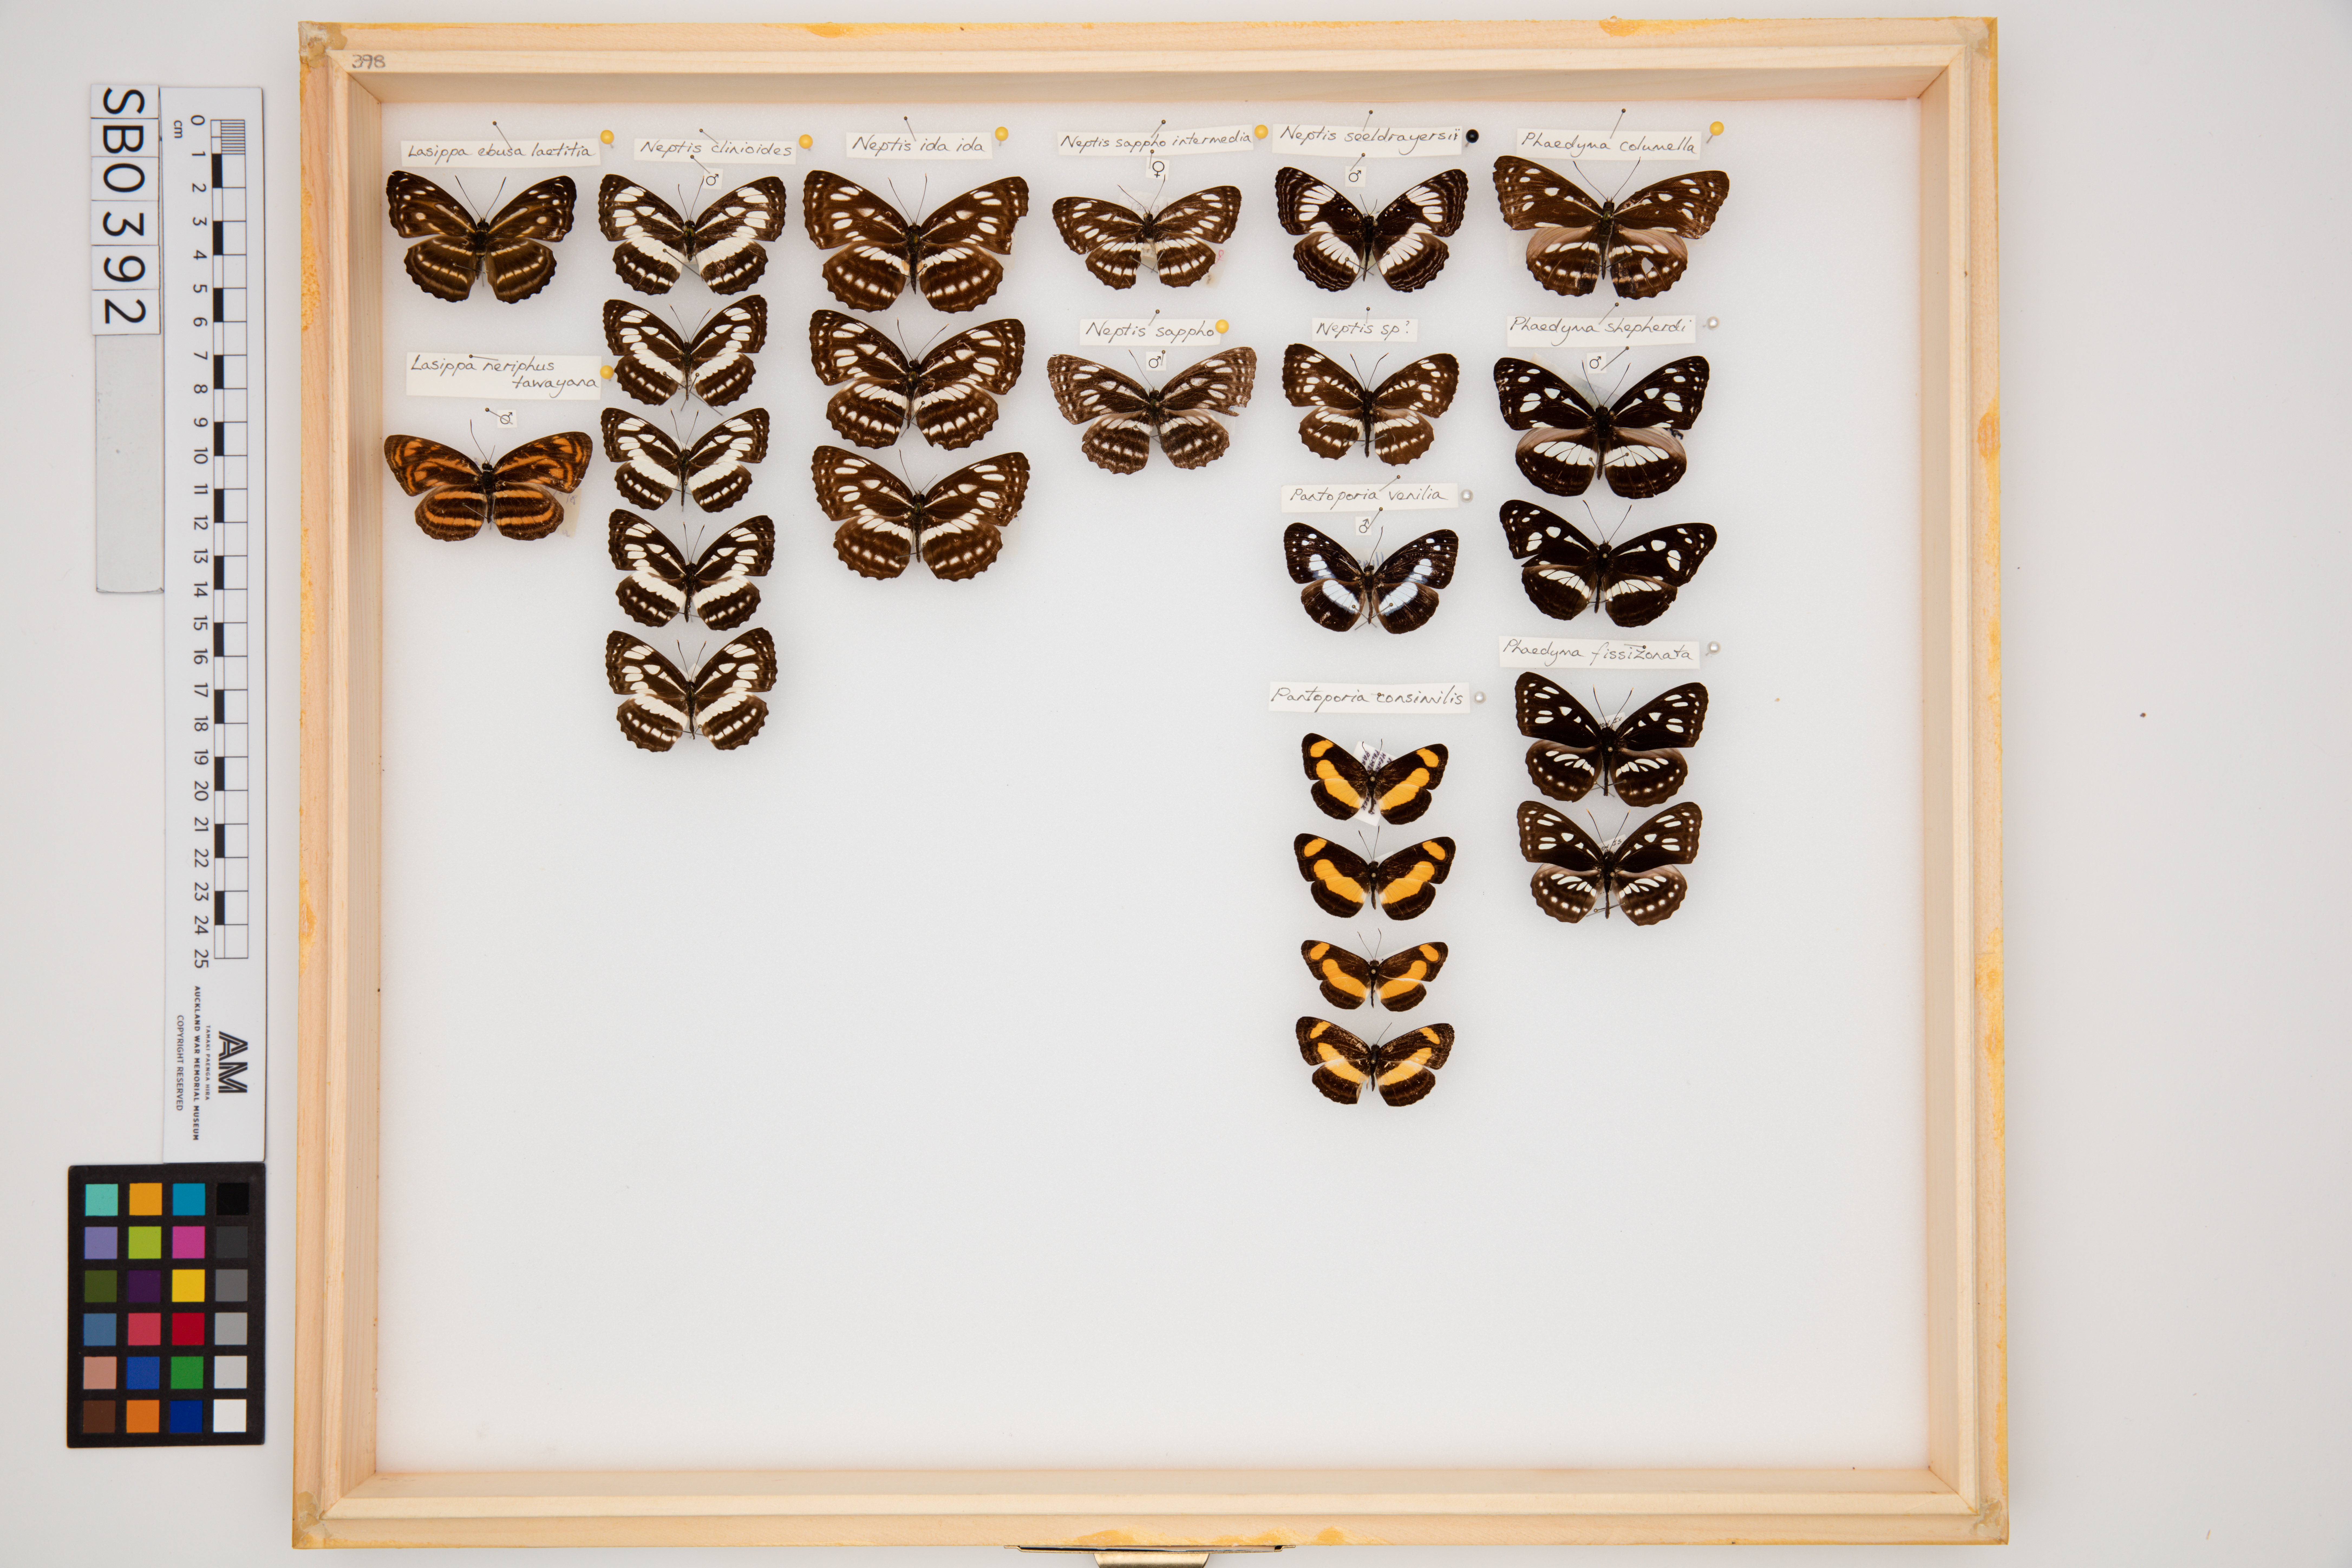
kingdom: Animalia
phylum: Arthropoda
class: Insecta
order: Lepidoptera
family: Nymphalidae
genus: Phaedyma
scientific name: Phaedyma fissizonata
